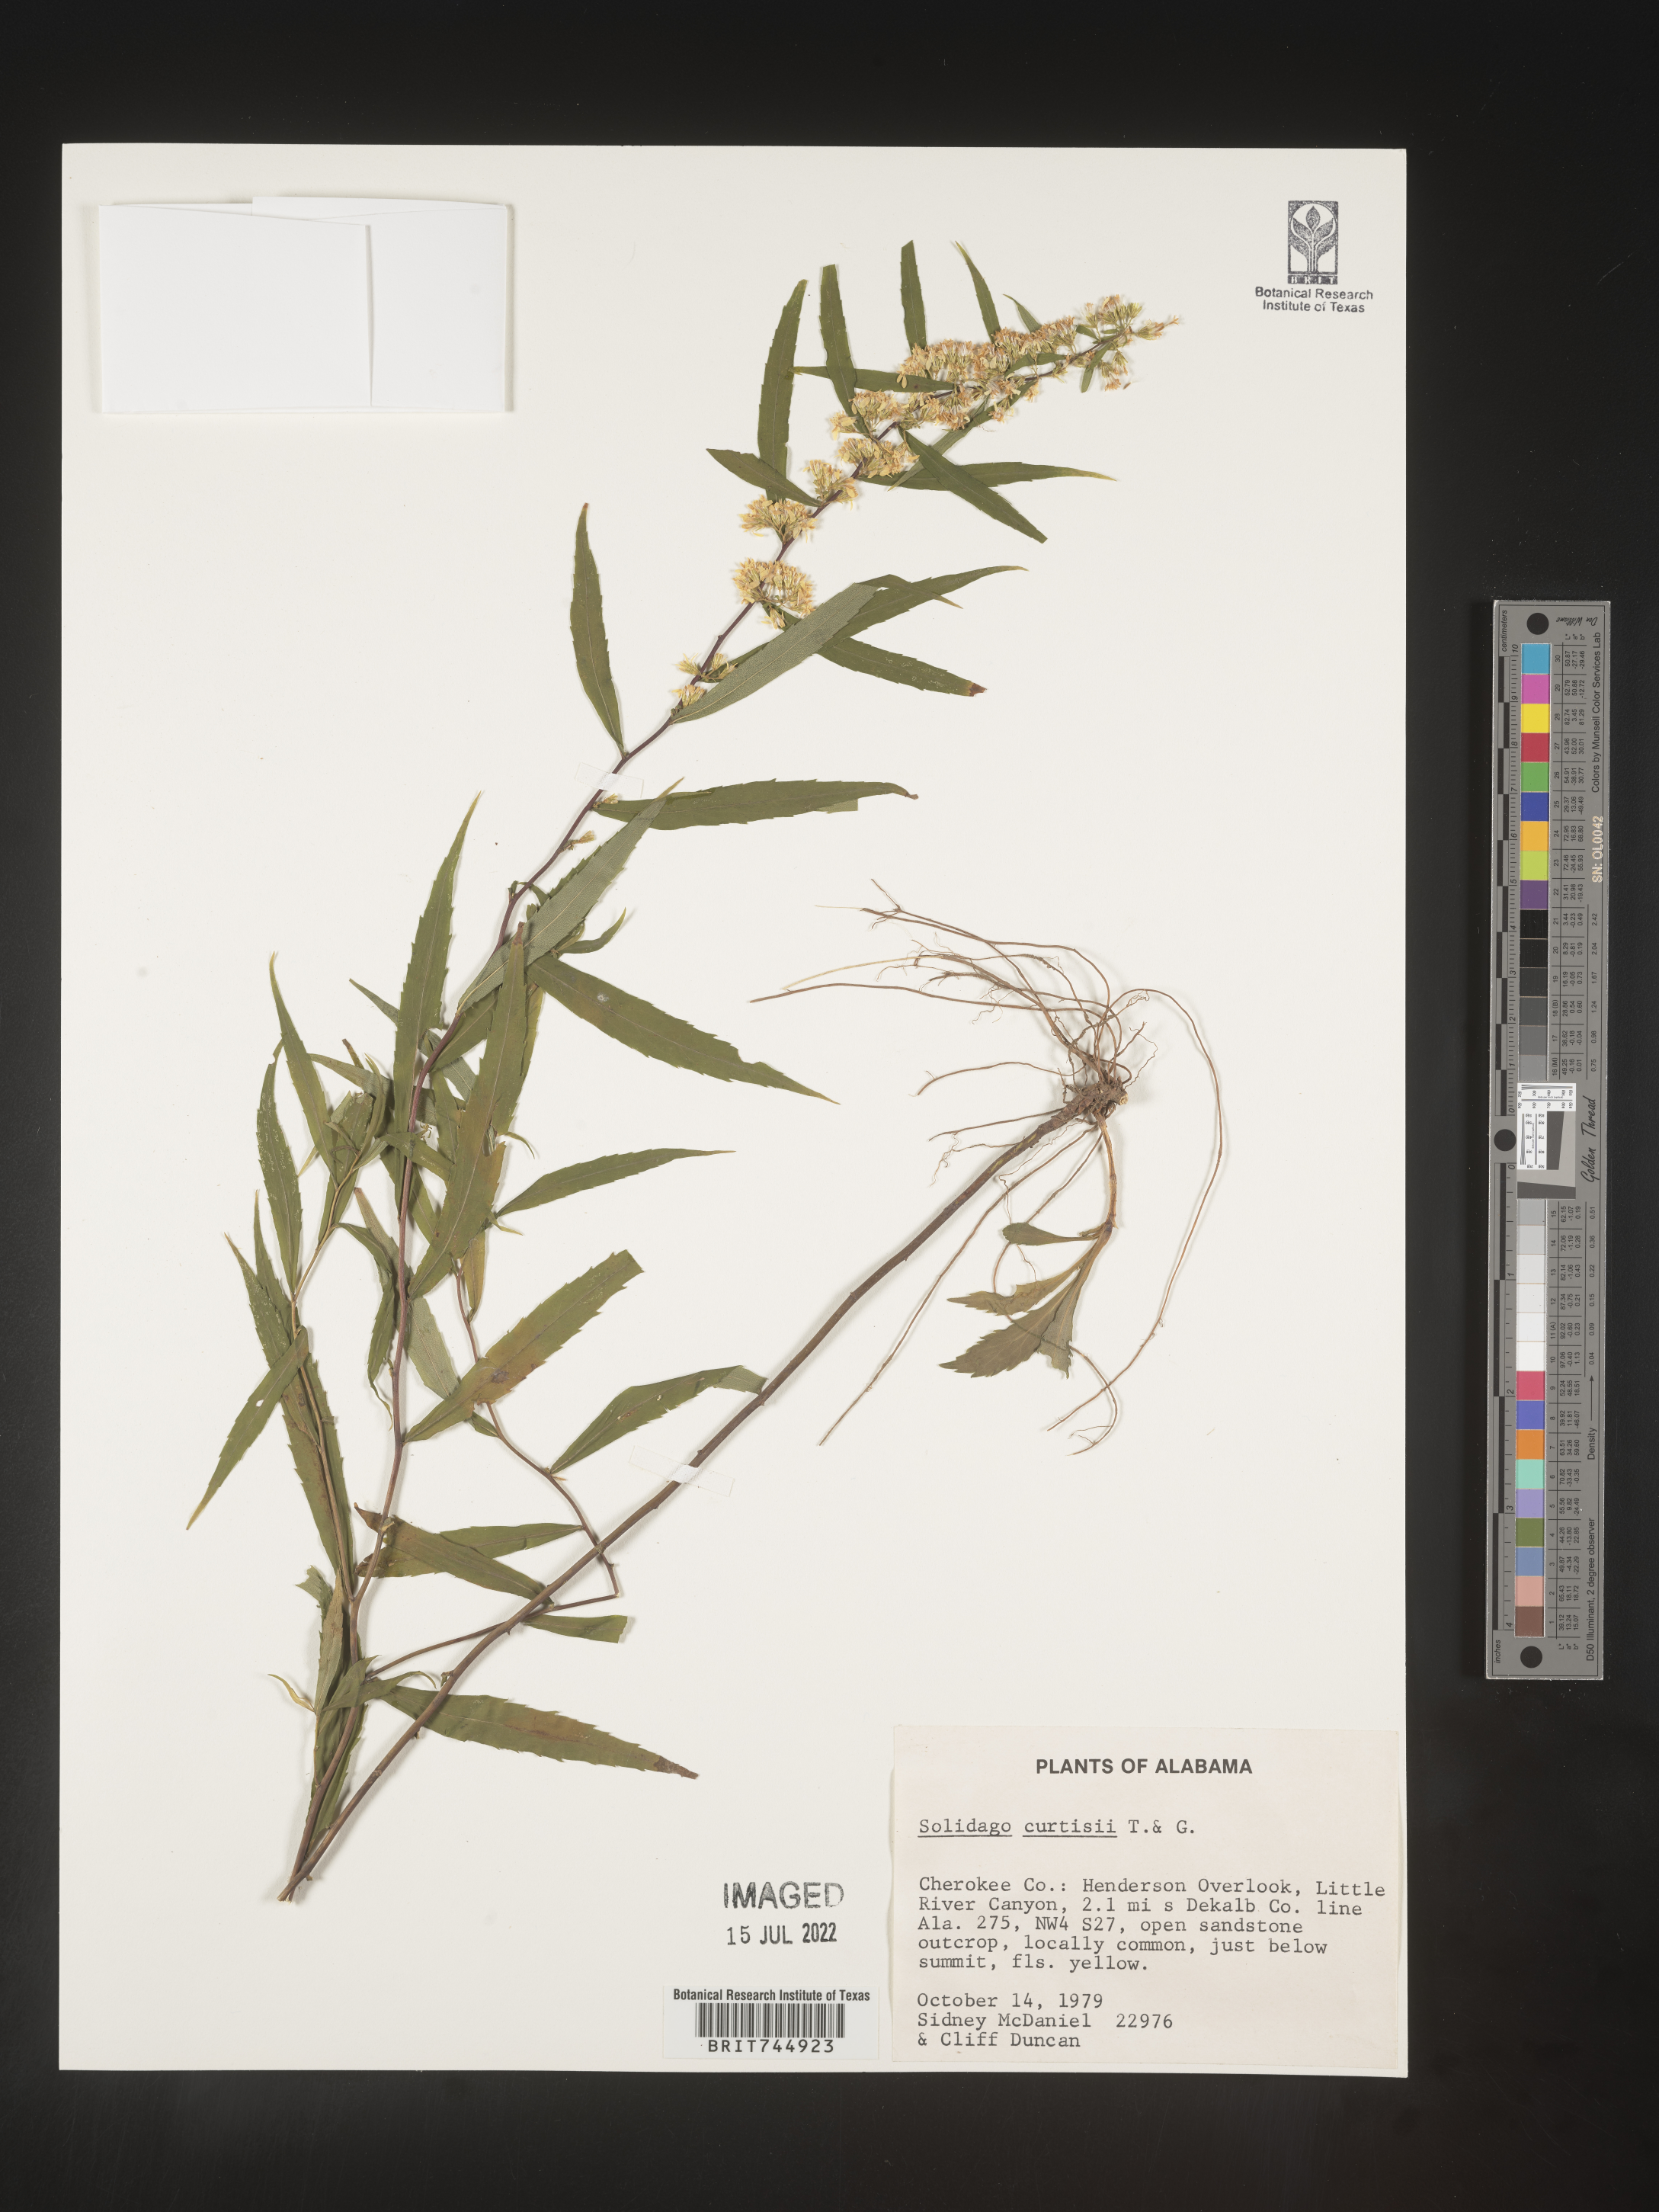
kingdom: Plantae
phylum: Tracheophyta
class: Magnoliopsida
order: Asterales
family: Asteraceae
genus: Solidago
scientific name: Solidago curtisii
